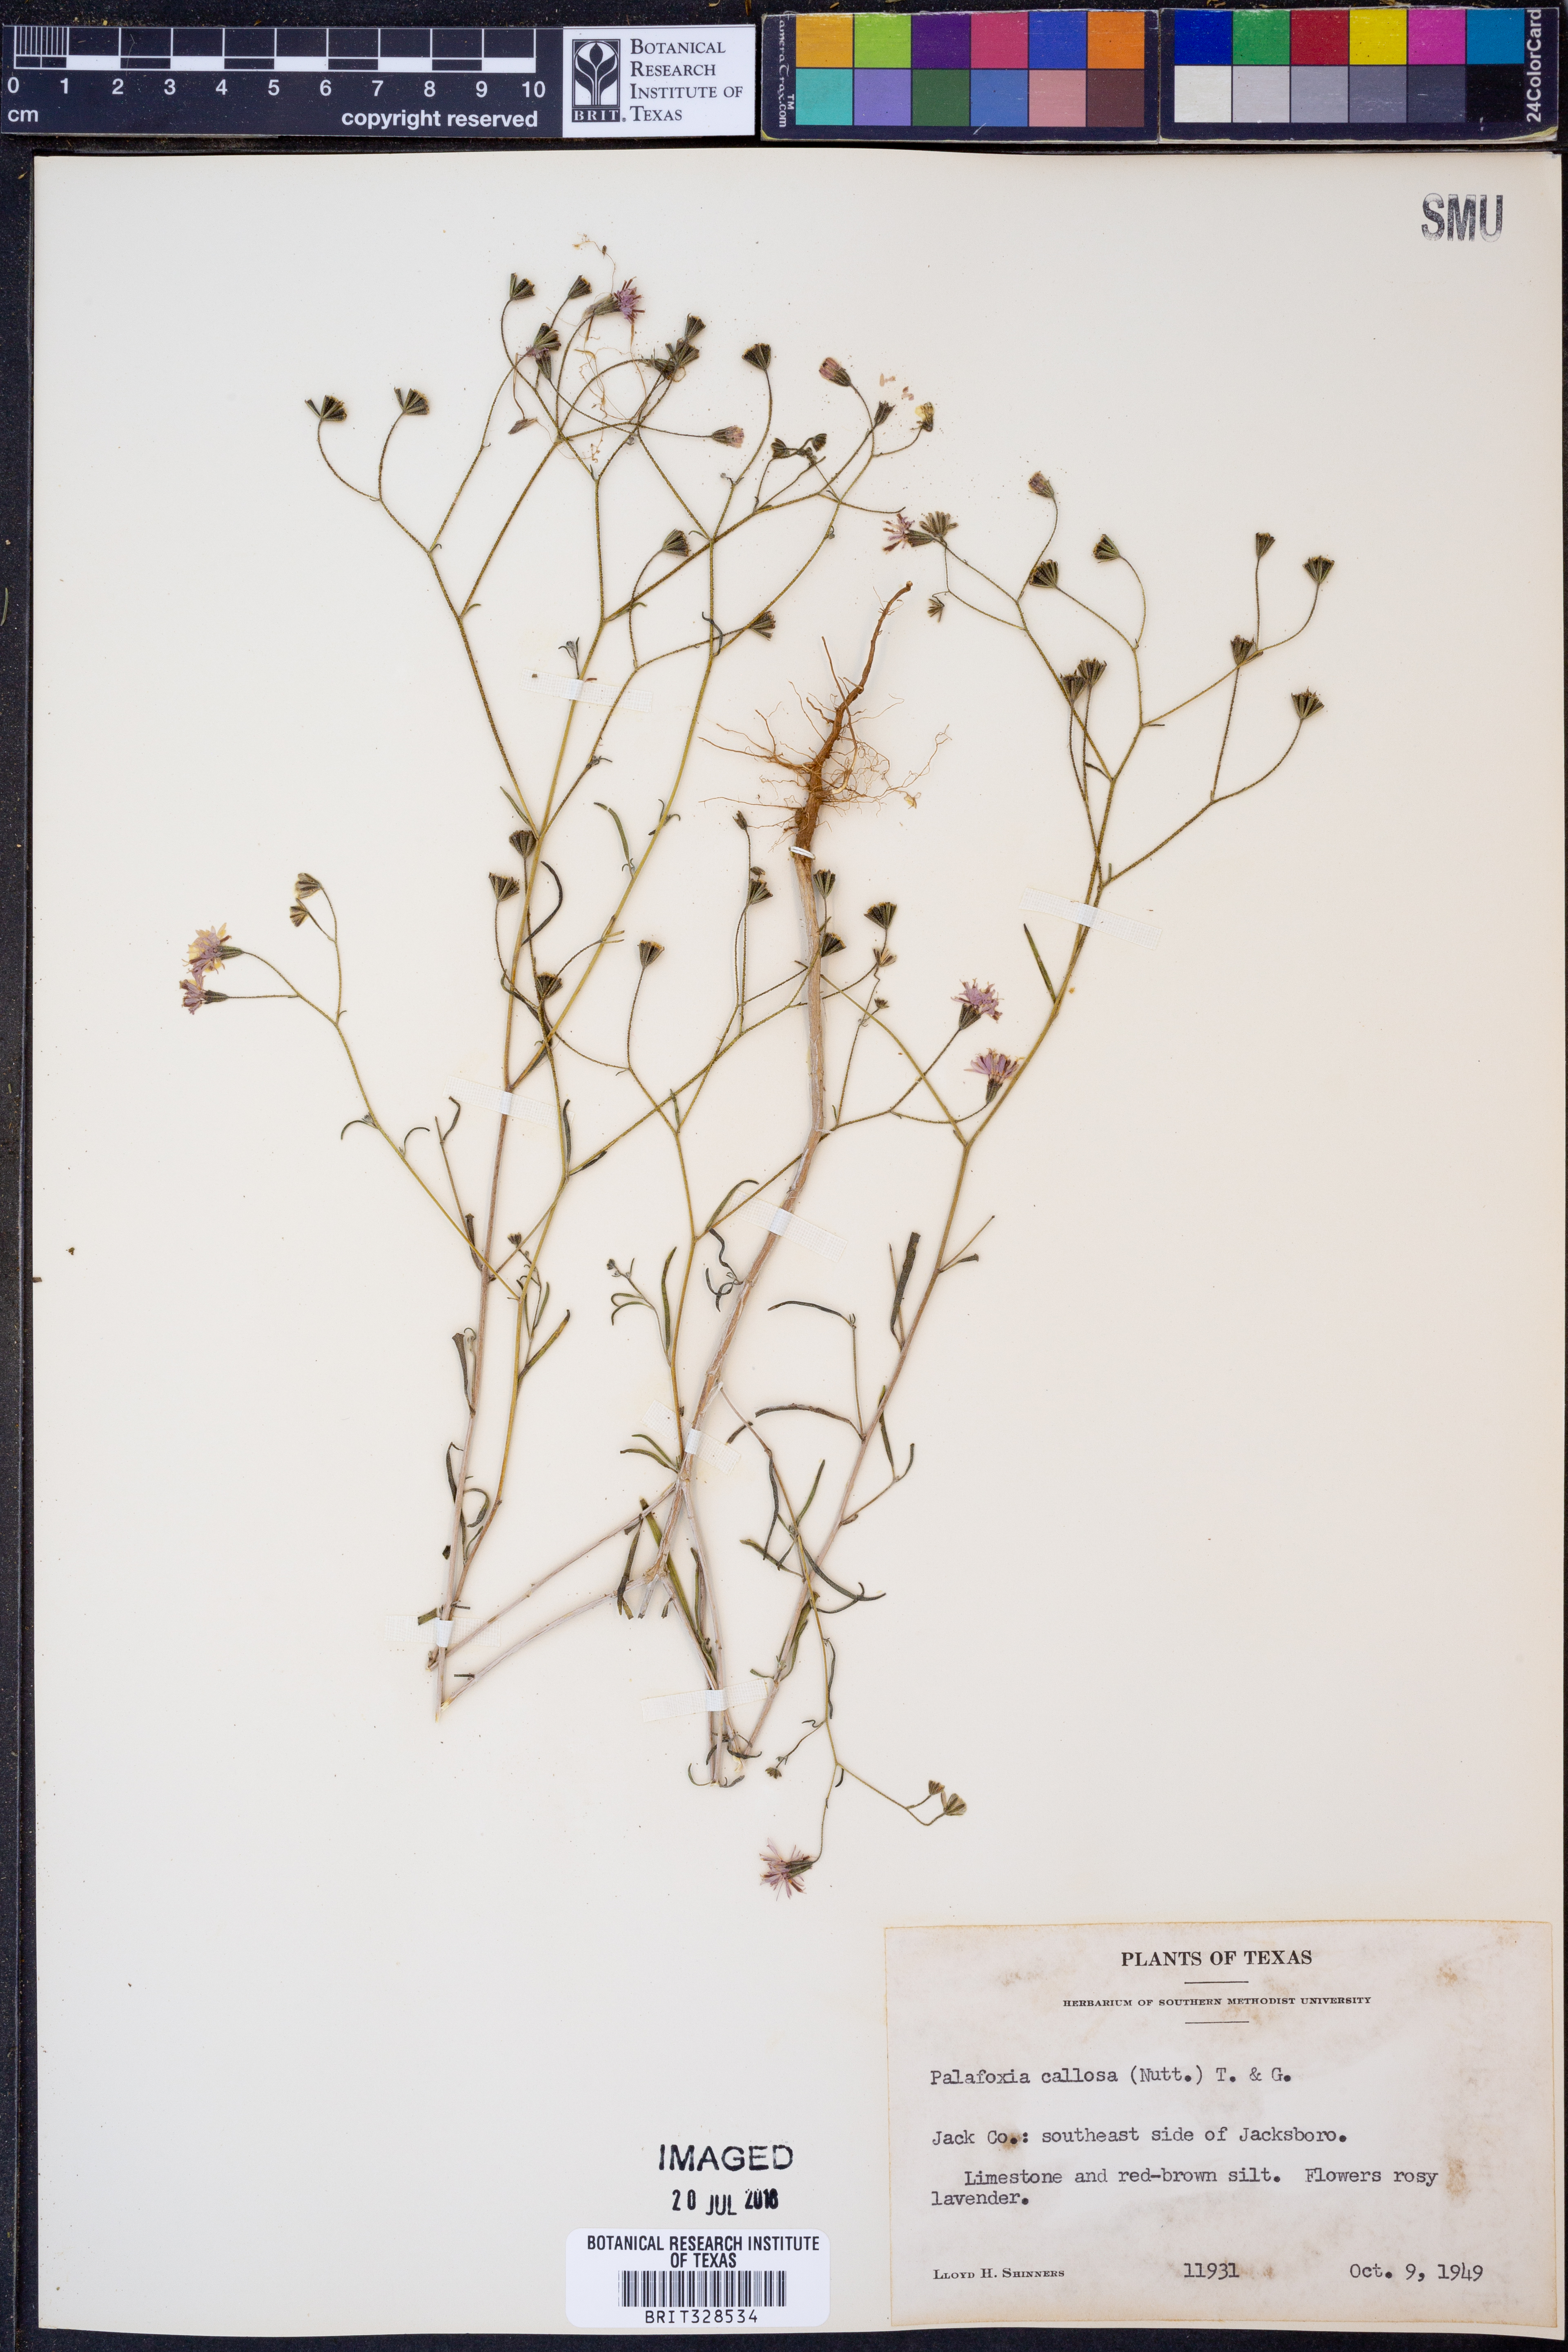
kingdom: Plantae
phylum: Tracheophyta
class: Magnoliopsida
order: Asterales
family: Asteraceae
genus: Palafoxia
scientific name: Palafoxia callosa
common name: Small palafox
